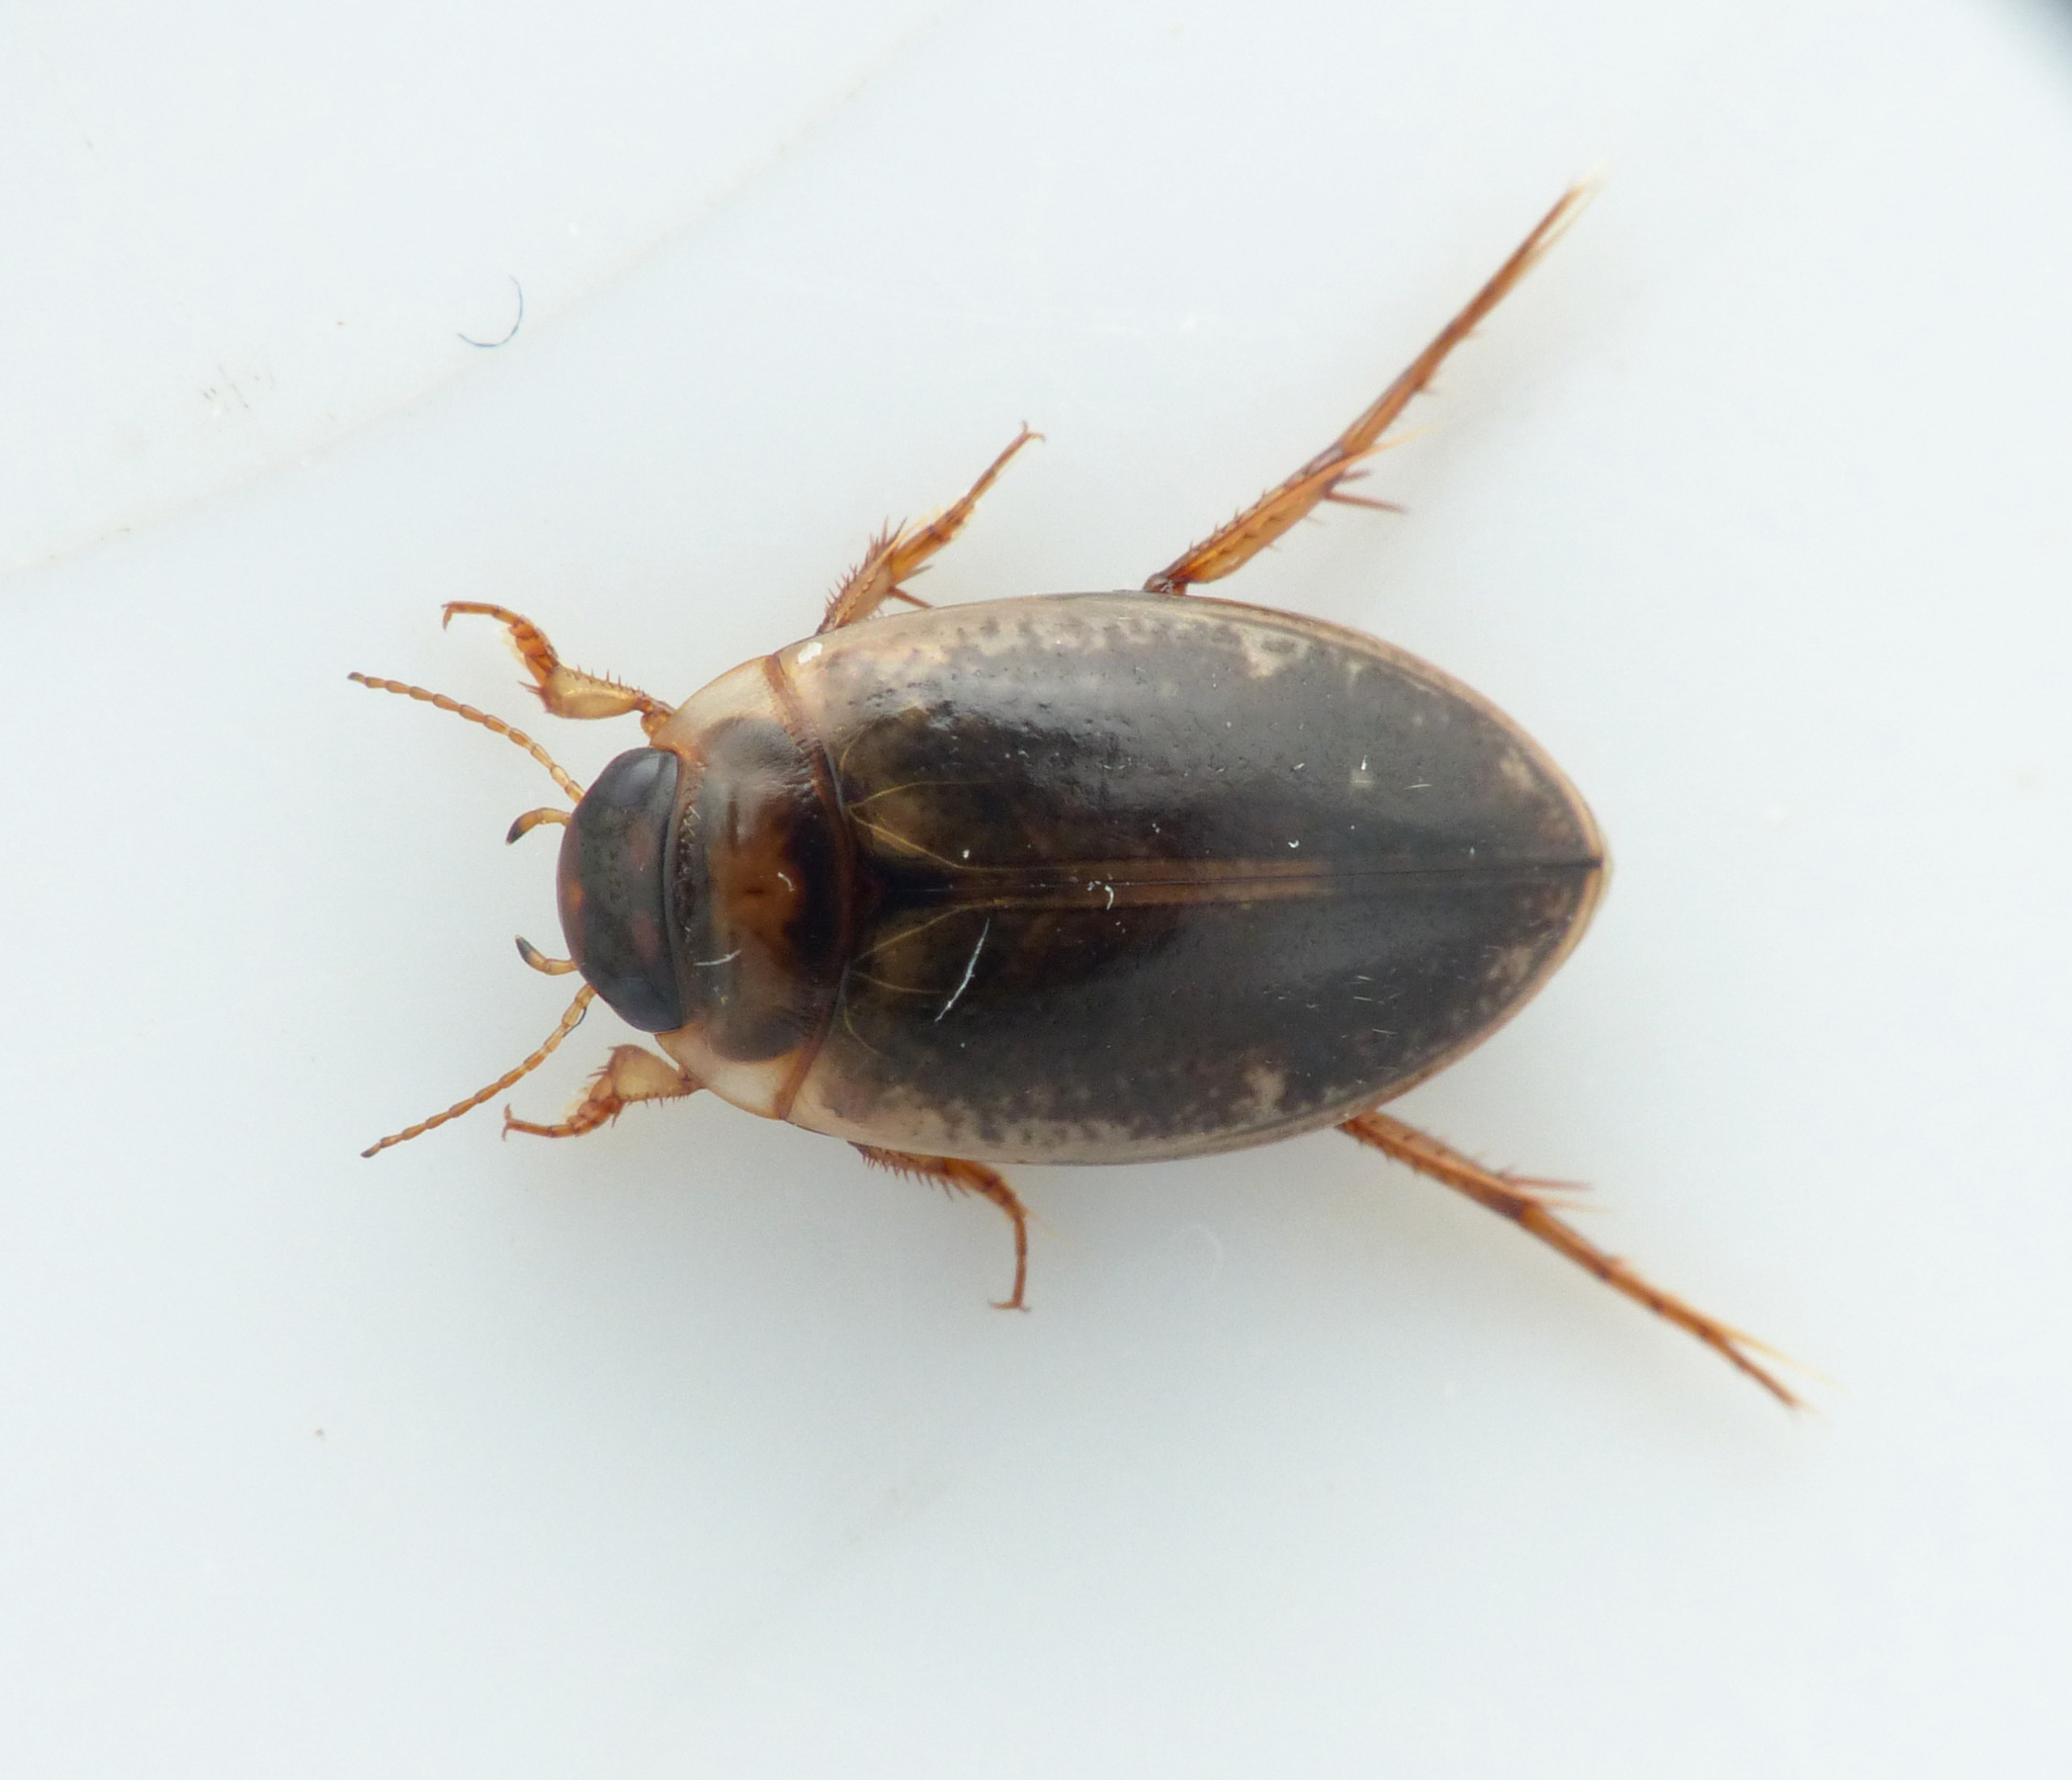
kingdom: Animalia
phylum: Arthropoda
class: Insecta
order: Coleoptera
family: Dytiscidae
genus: Agabus
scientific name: Agabus nebulosus
